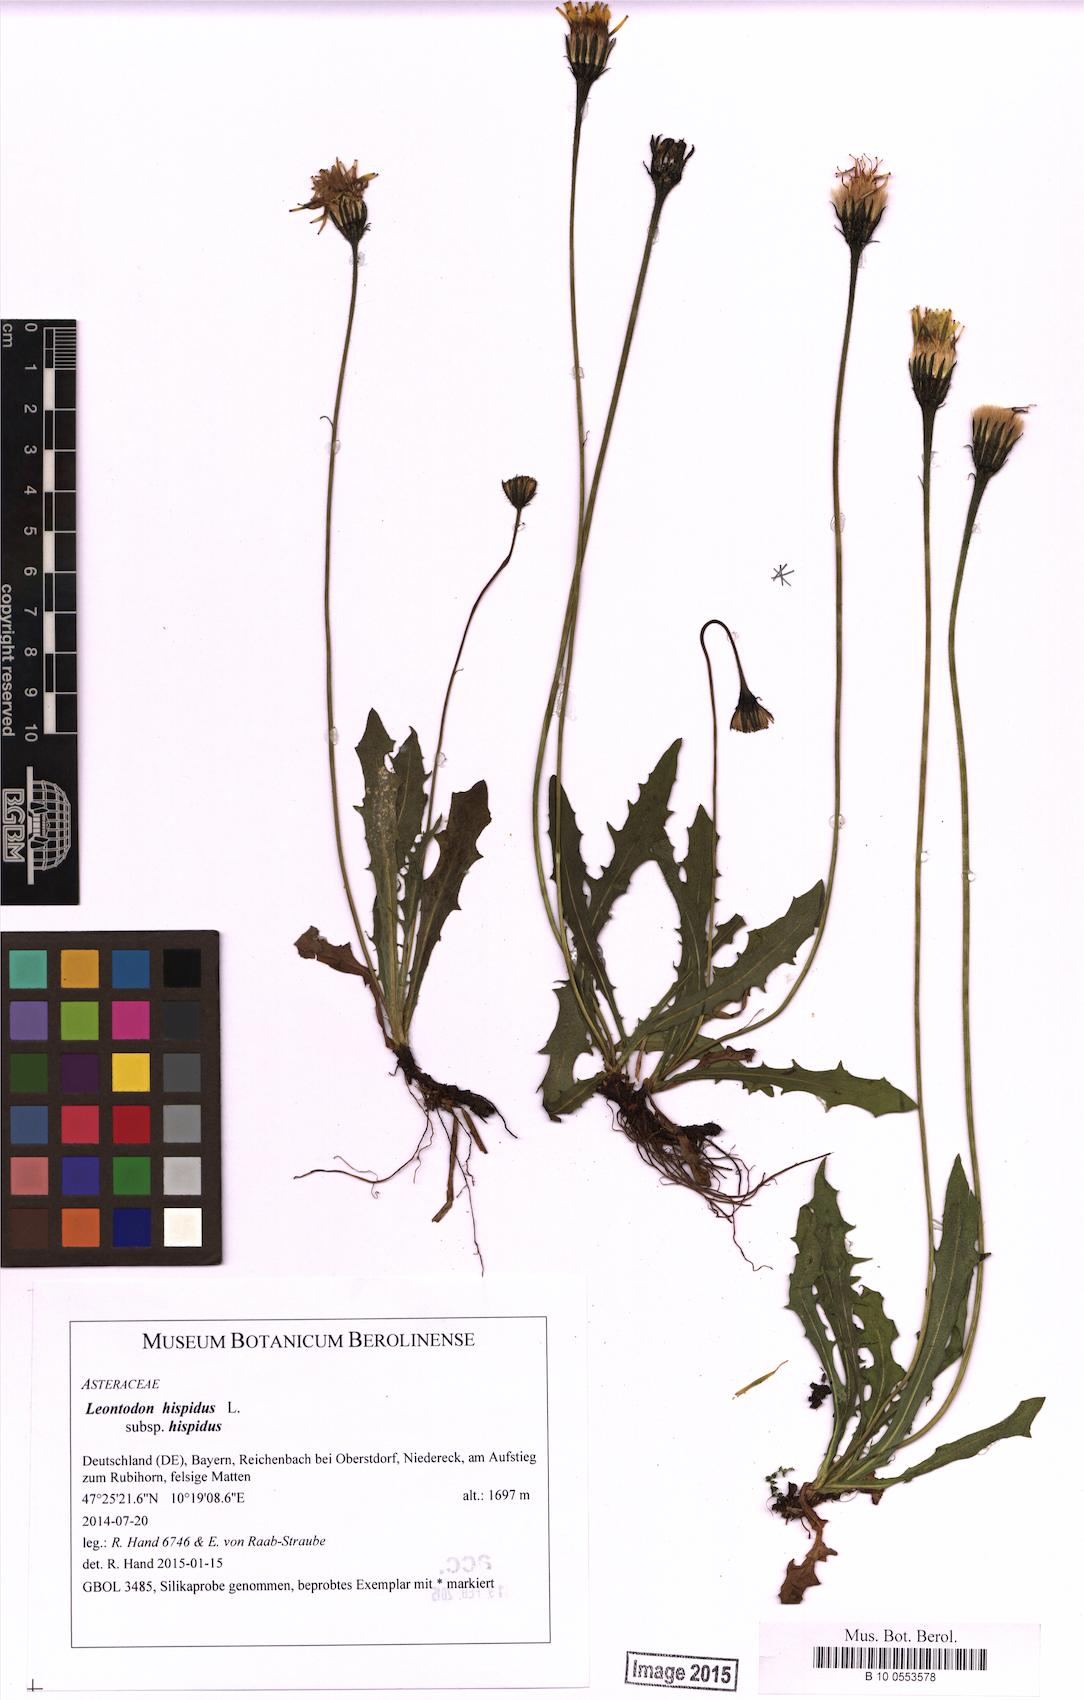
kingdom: Plantae
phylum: Tracheophyta
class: Magnoliopsida
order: Asterales
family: Asteraceae
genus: Leontodon
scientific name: Leontodon hispidus
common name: Rough hawkbit
